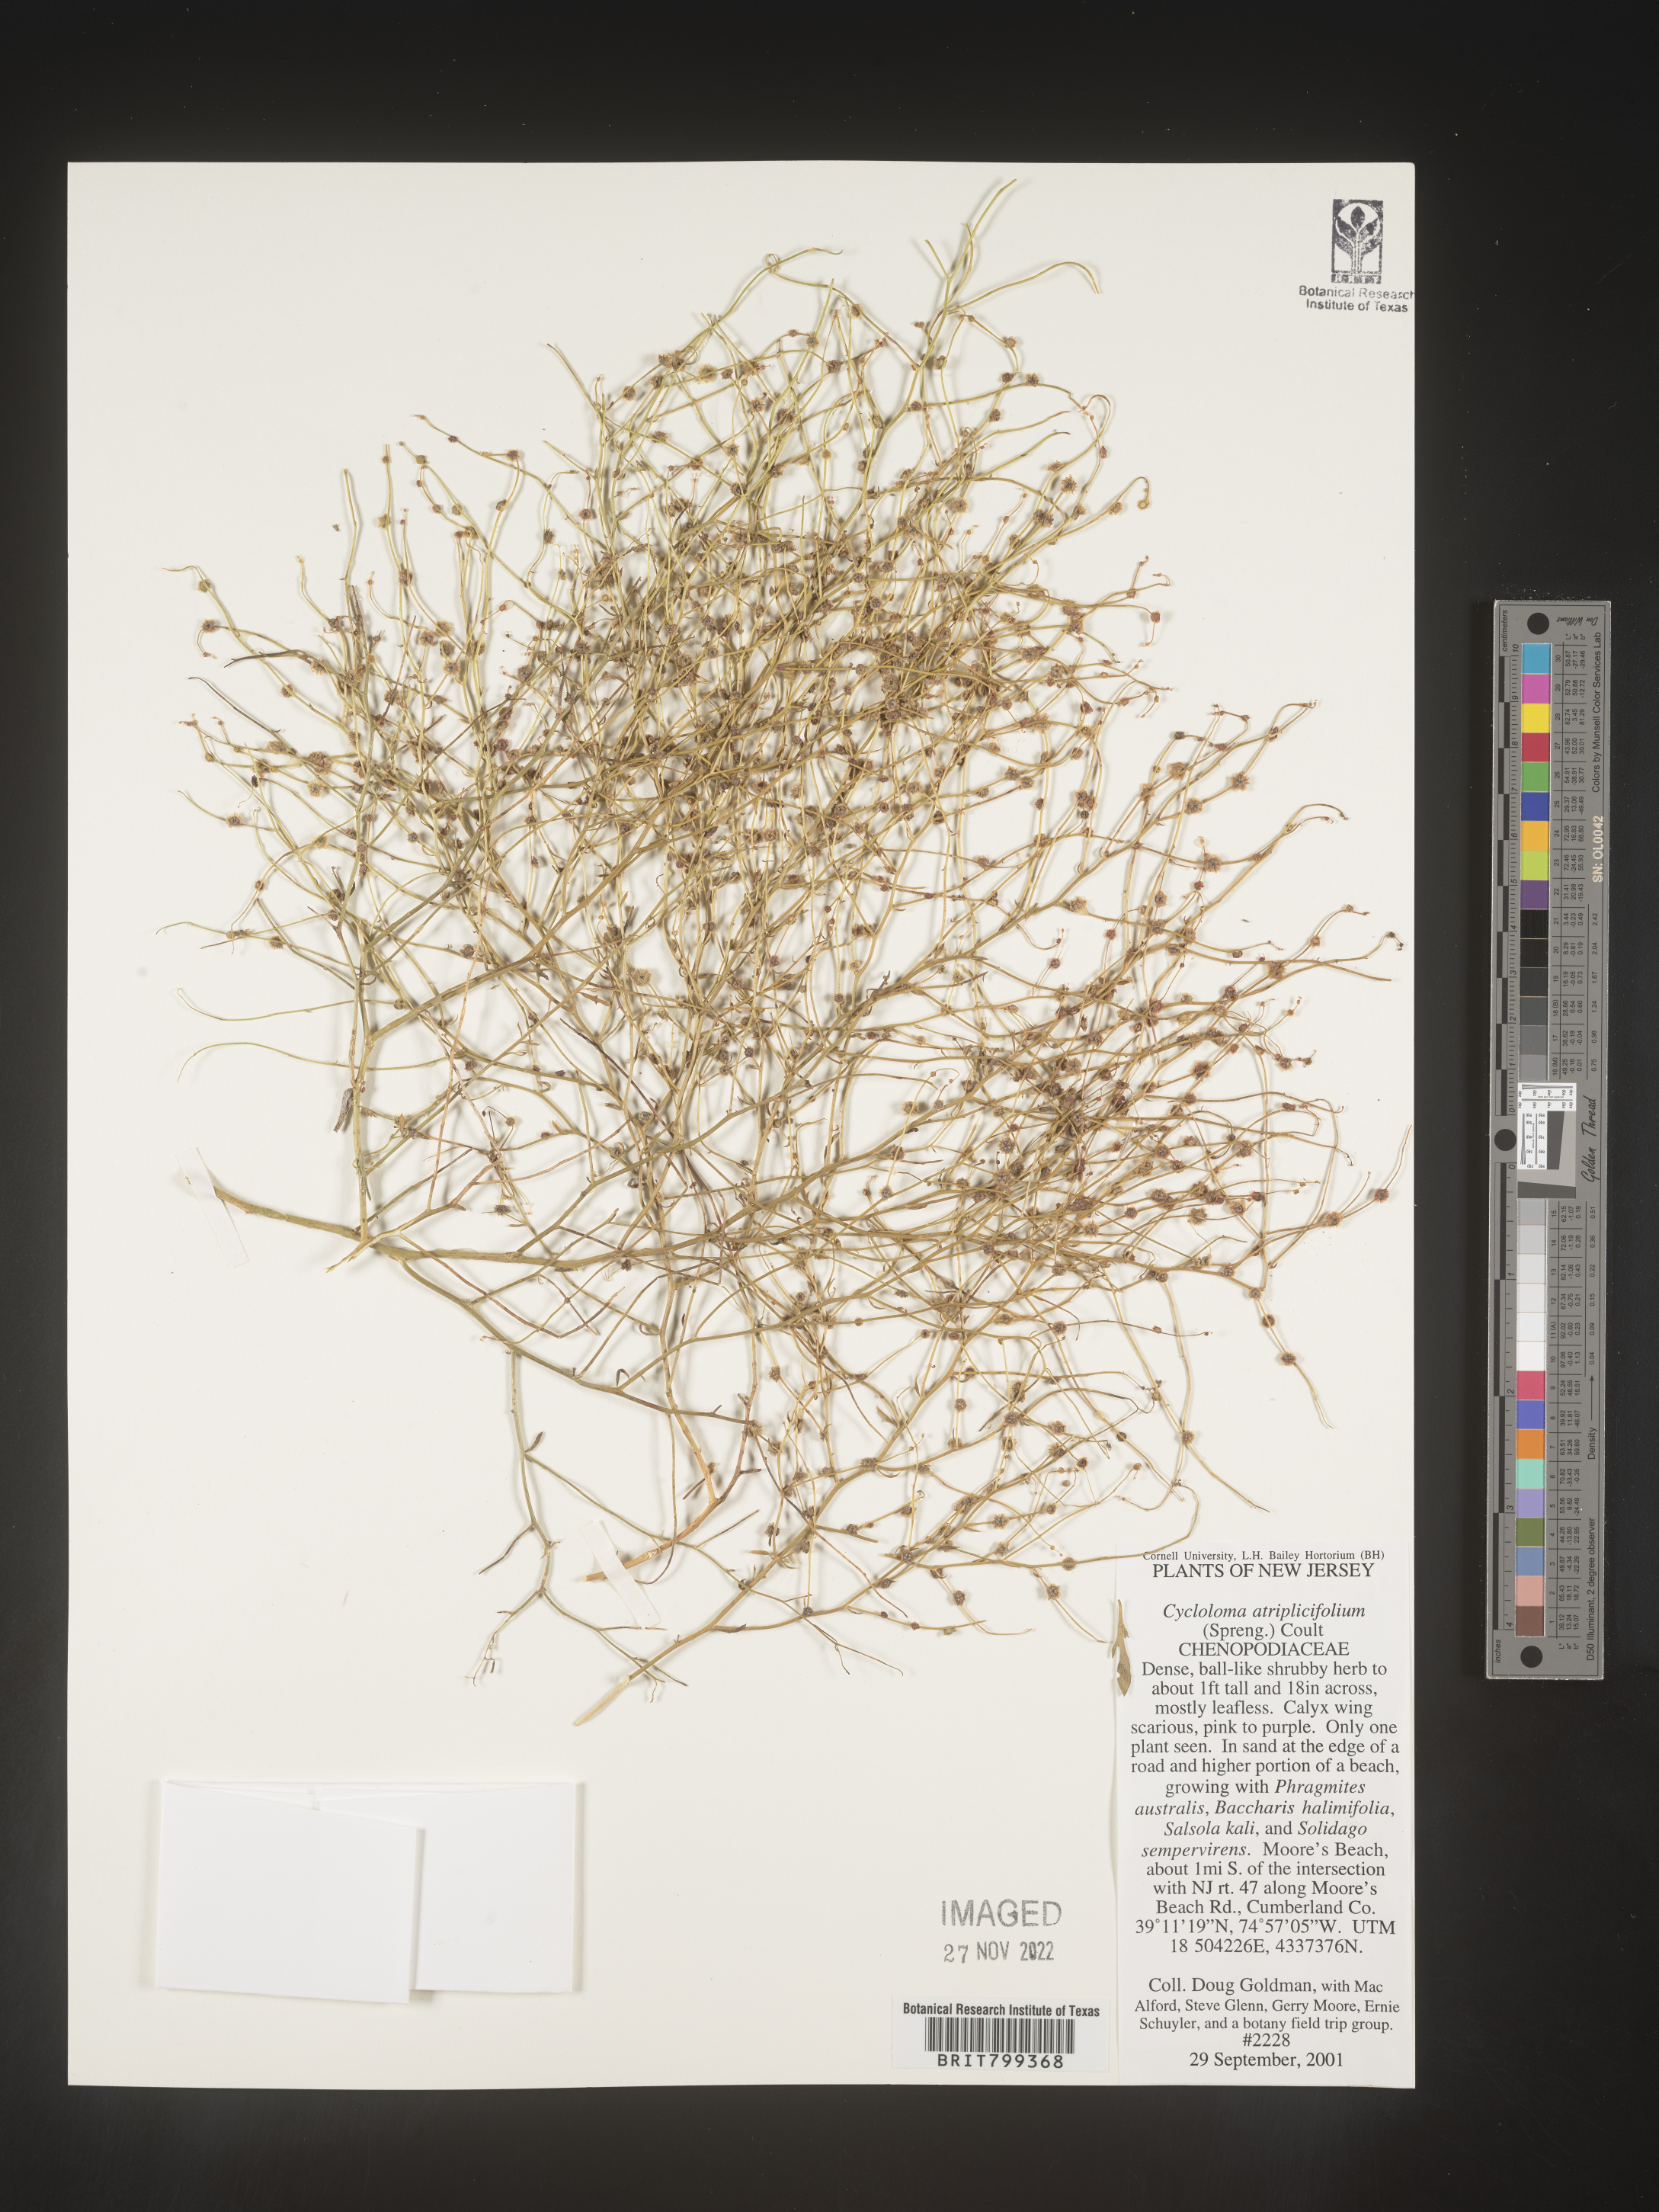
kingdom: Plantae
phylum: Tracheophyta
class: Magnoliopsida
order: Caryophyllales
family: Amaranthaceae
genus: Dysphania
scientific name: Dysphania atriplicifolia
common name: Plains tumbleweed
